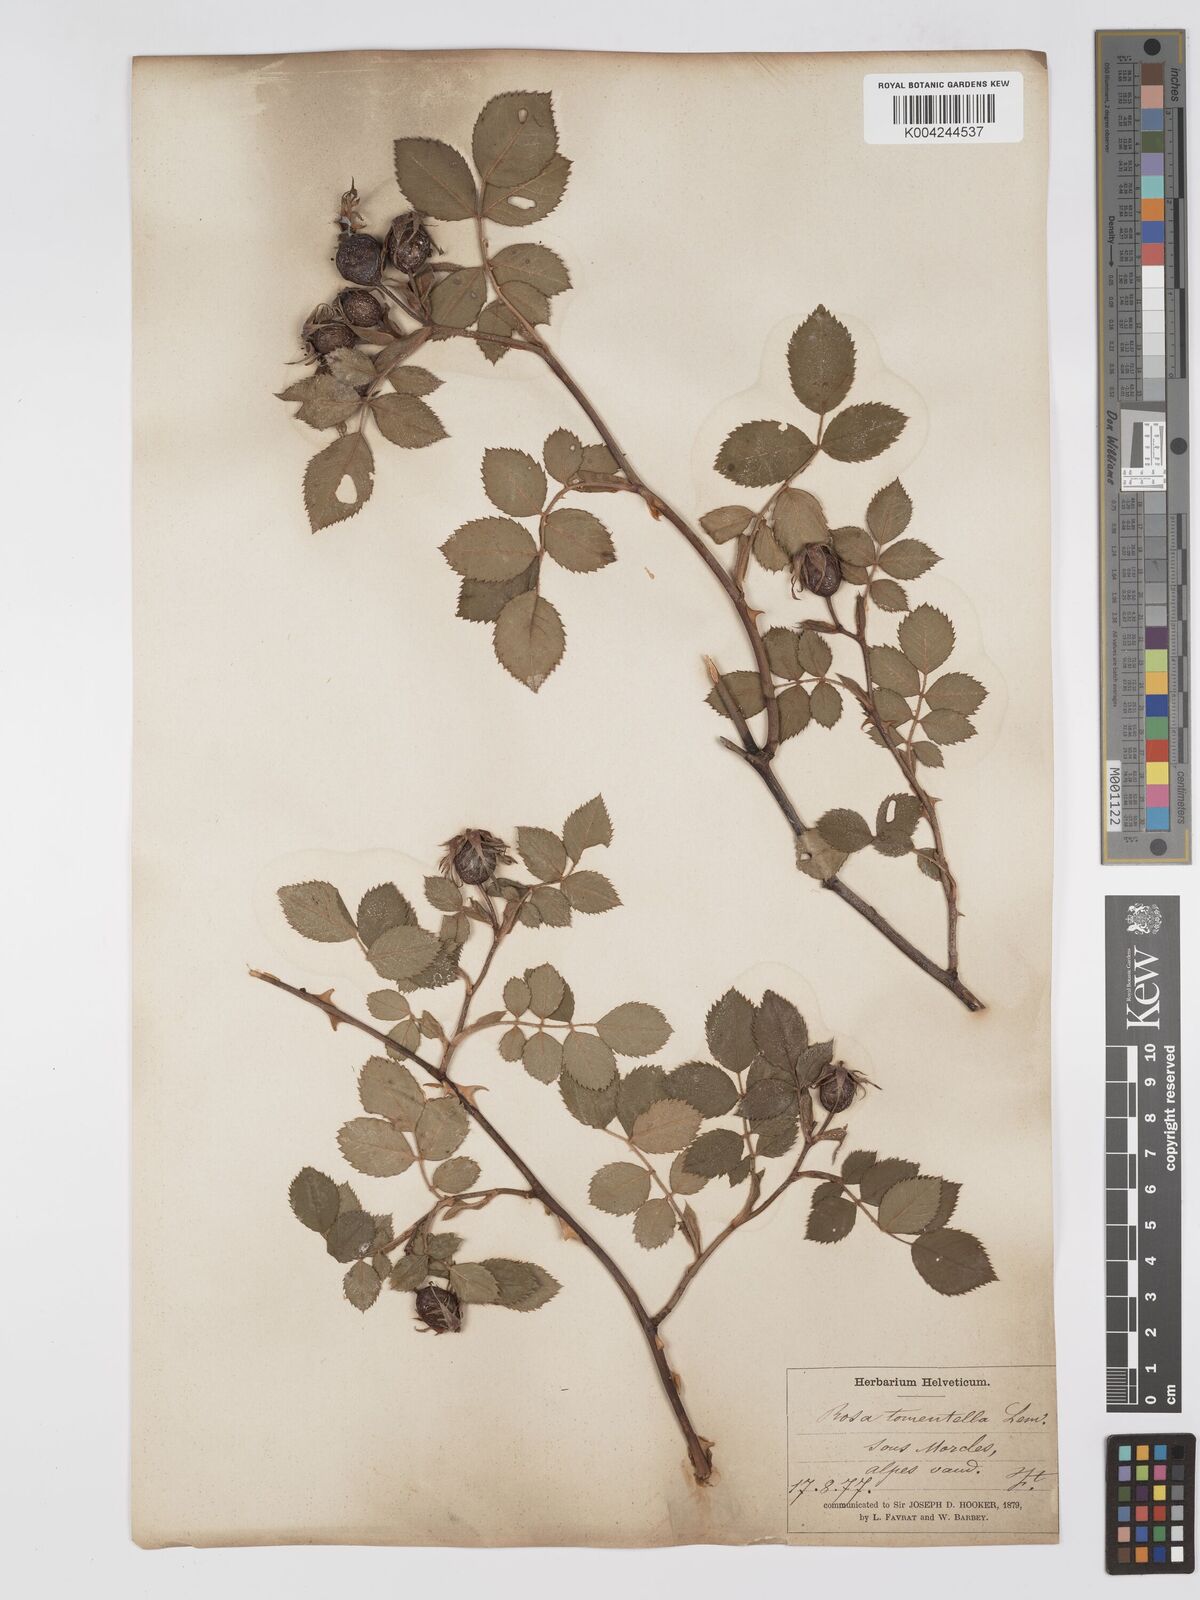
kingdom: Plantae
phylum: Tracheophyta
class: Magnoliopsida
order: Rosales
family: Rosaceae
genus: Rosa
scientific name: Rosa
